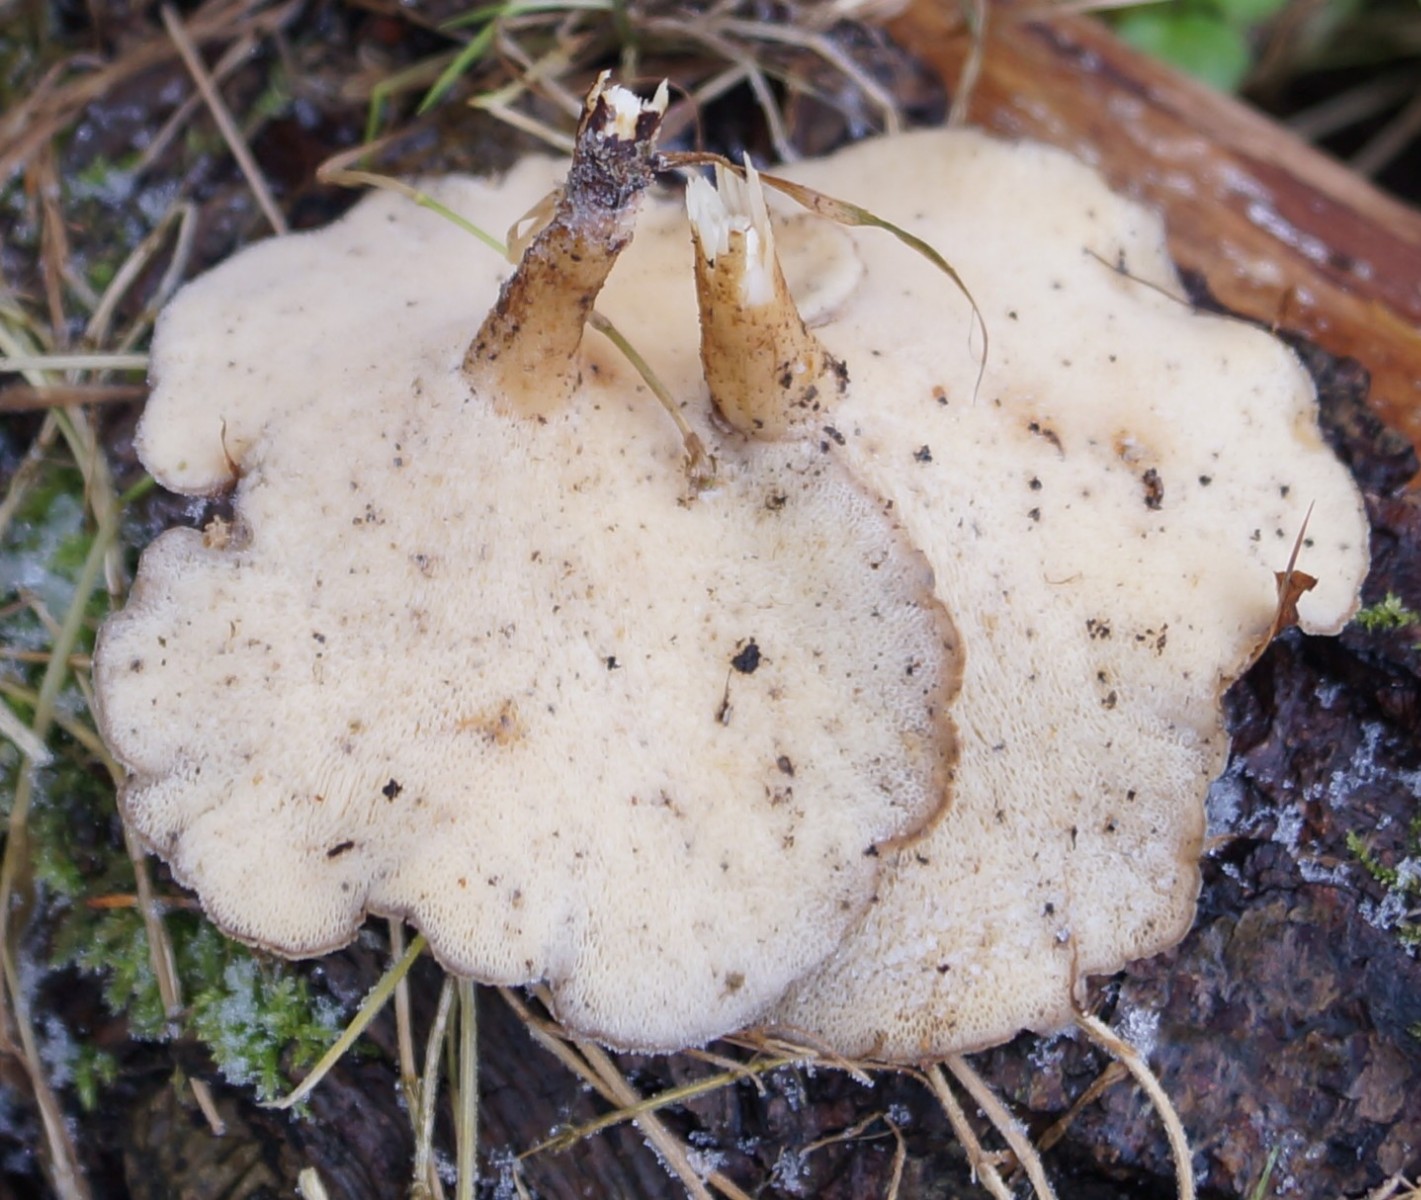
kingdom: Fungi
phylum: Basidiomycota
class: Agaricomycetes
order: Polyporales
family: Polyporaceae
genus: Lentinus
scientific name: Lentinus brumalis
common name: vinter-stilkporesvamp
